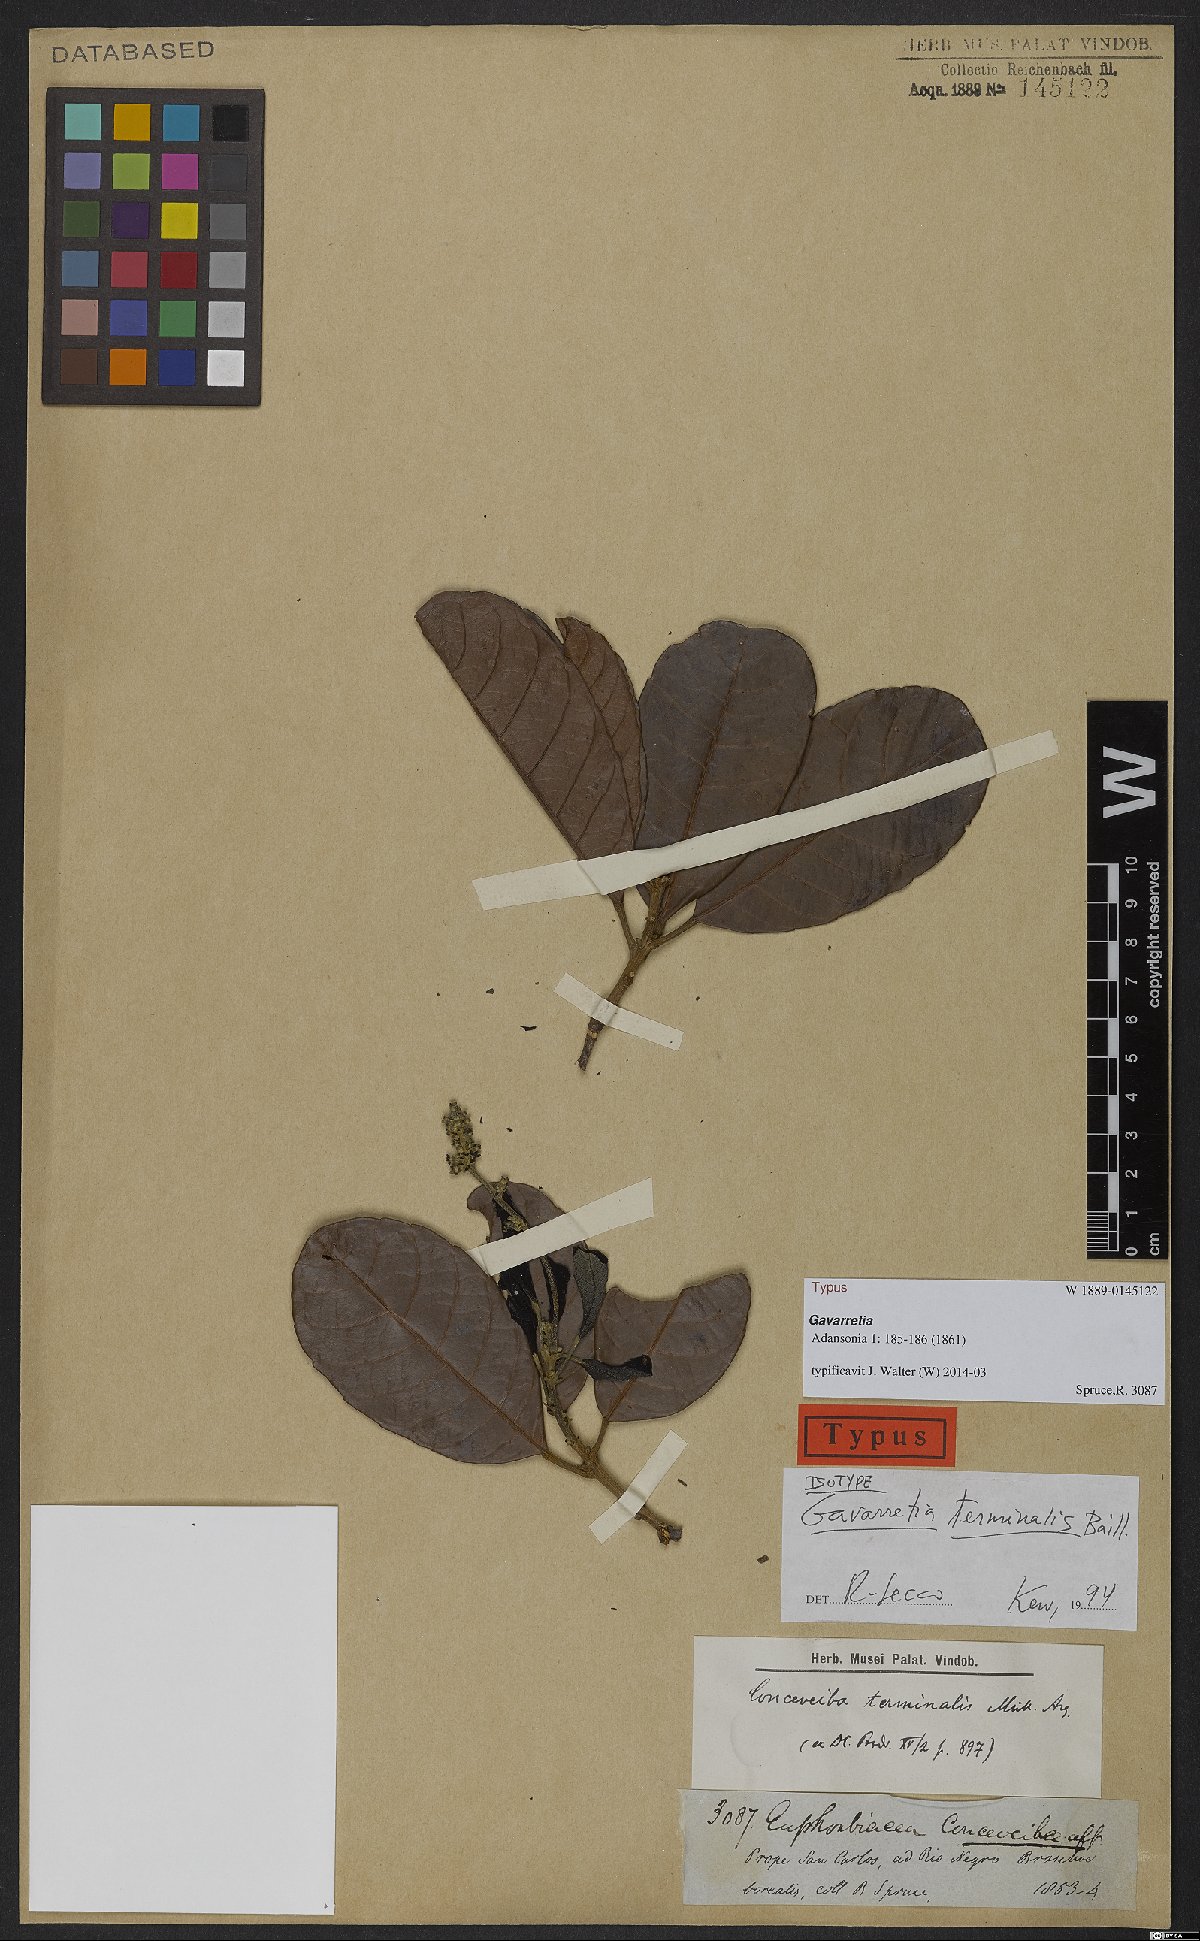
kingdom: Plantae
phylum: Tracheophyta
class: Magnoliopsida
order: Malpighiales
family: Euphorbiaceae
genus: Conceveiba
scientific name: Conceveiba terminalis
